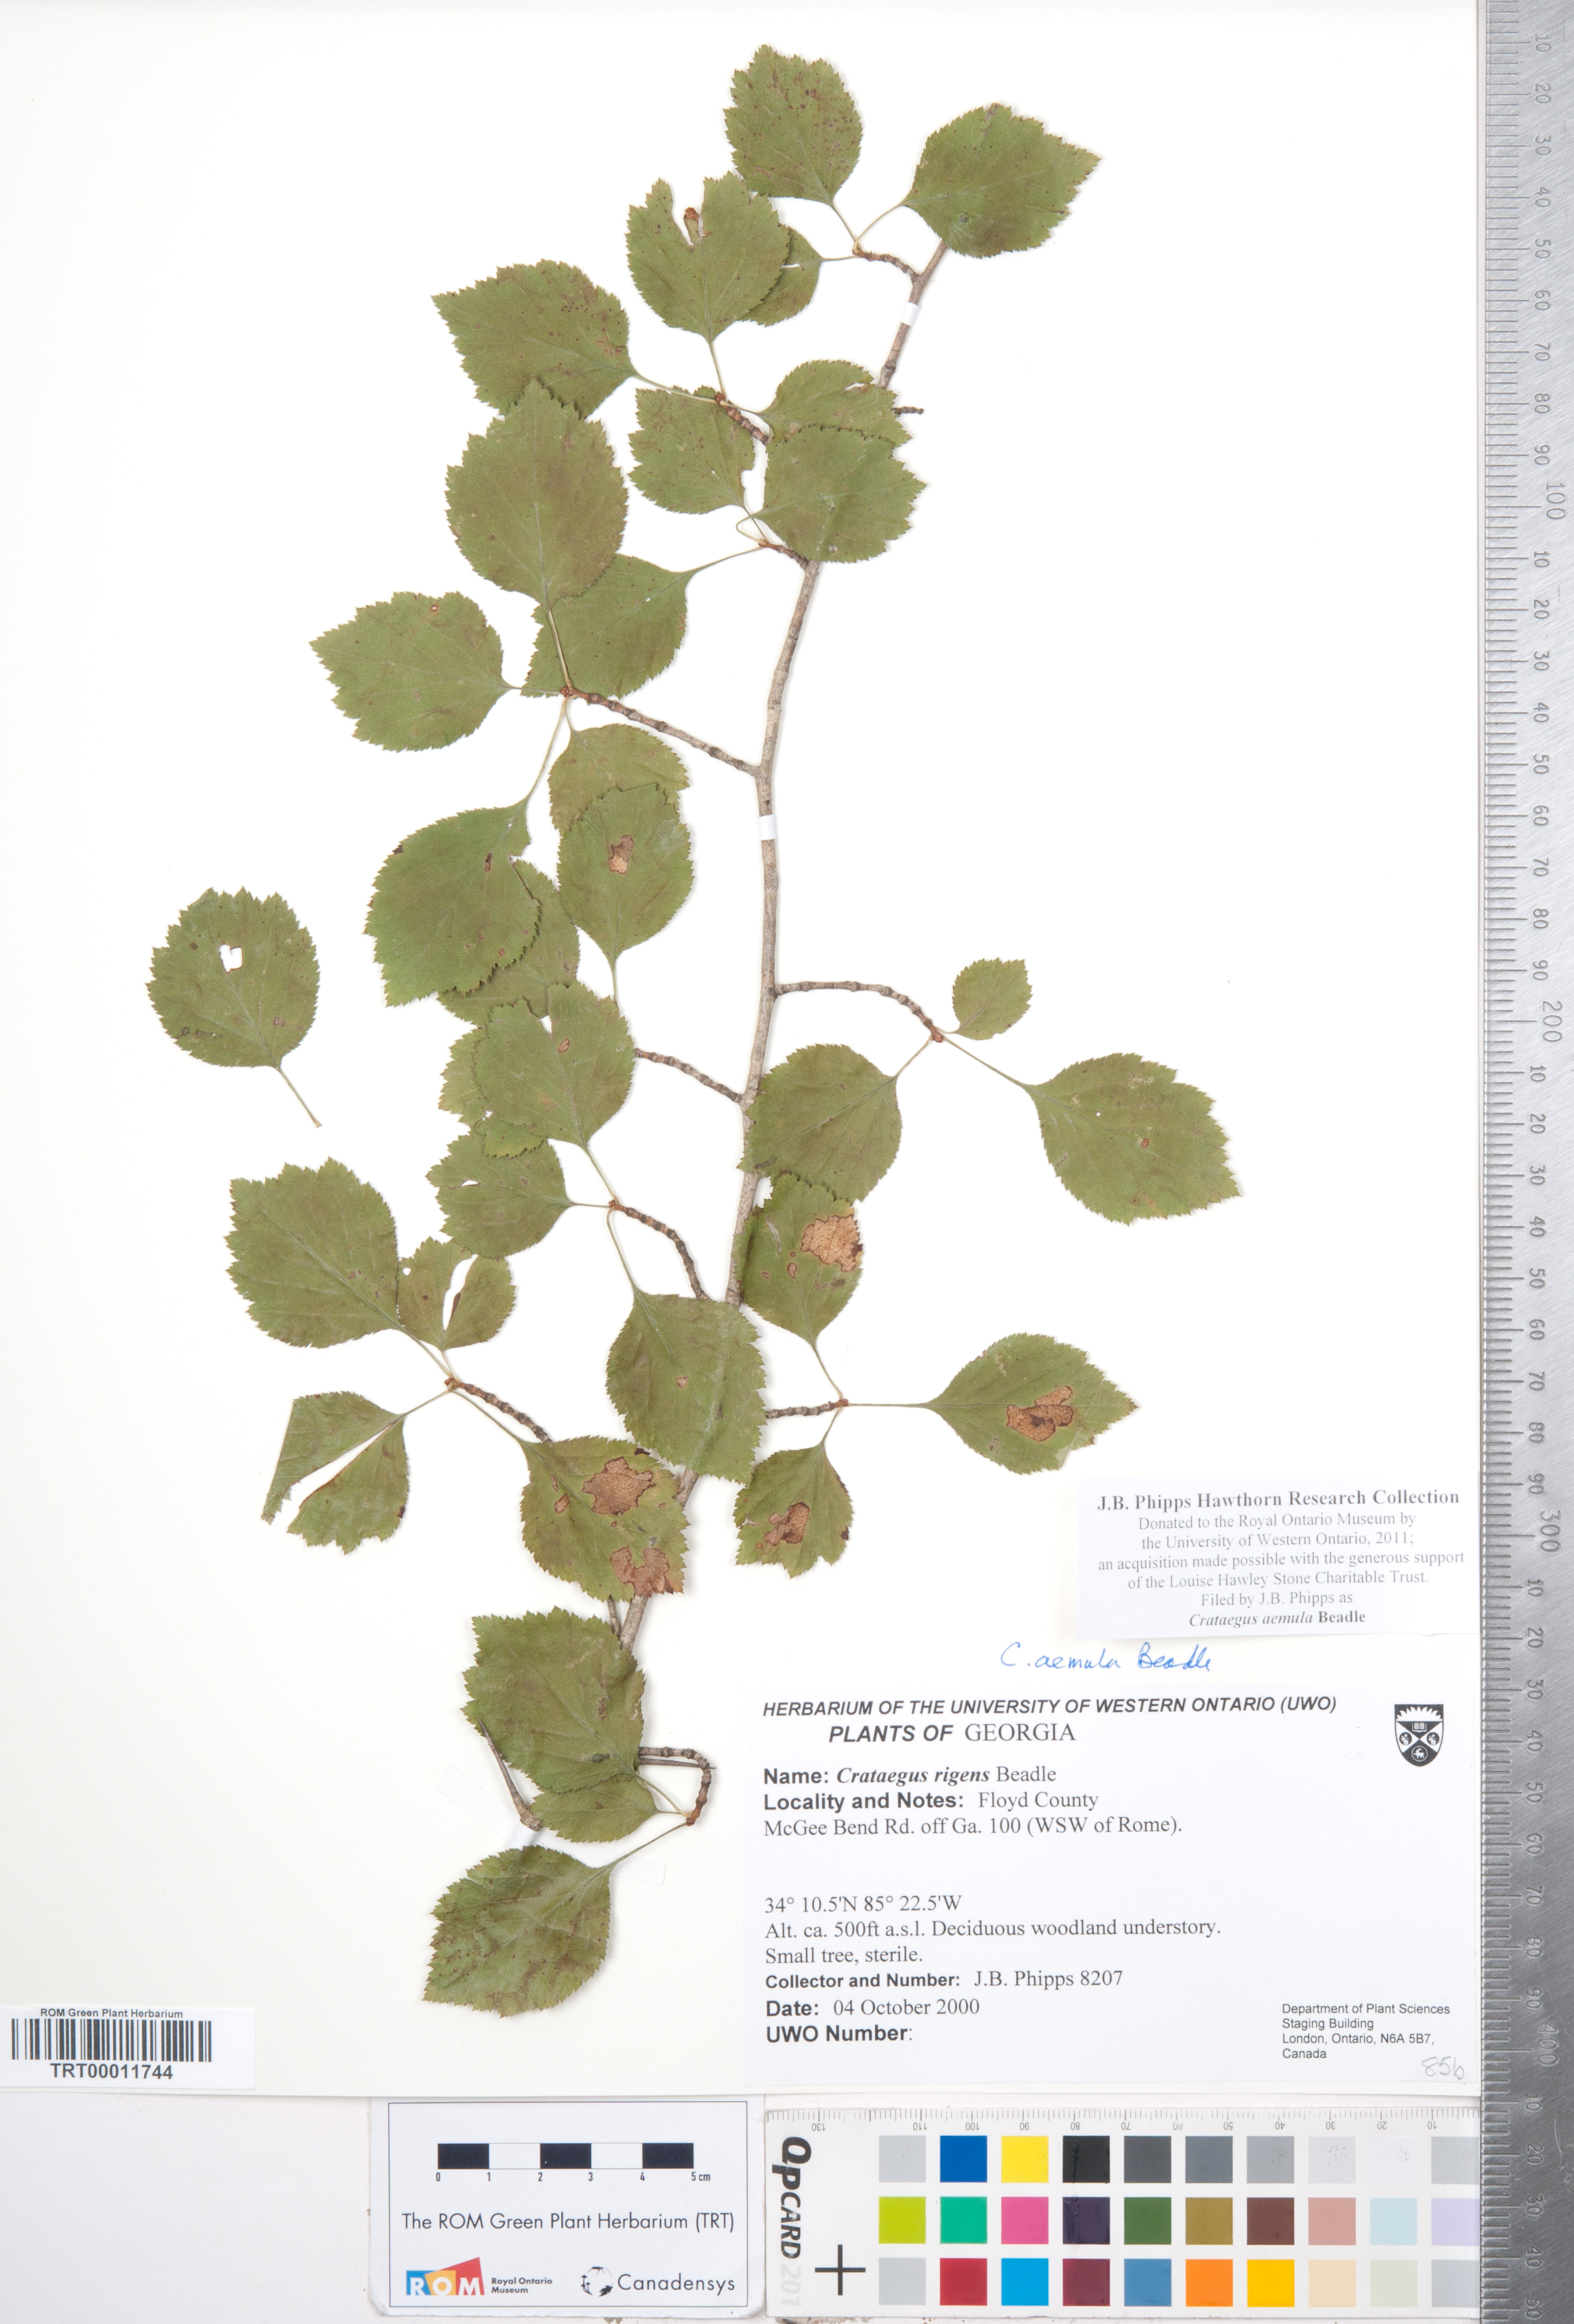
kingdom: Plantae
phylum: Tracheophyta
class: Magnoliopsida
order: Rosales
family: Rosaceae
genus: Crataegus
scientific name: Crataegus iracunda
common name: Stolon-bearing hawthorn
